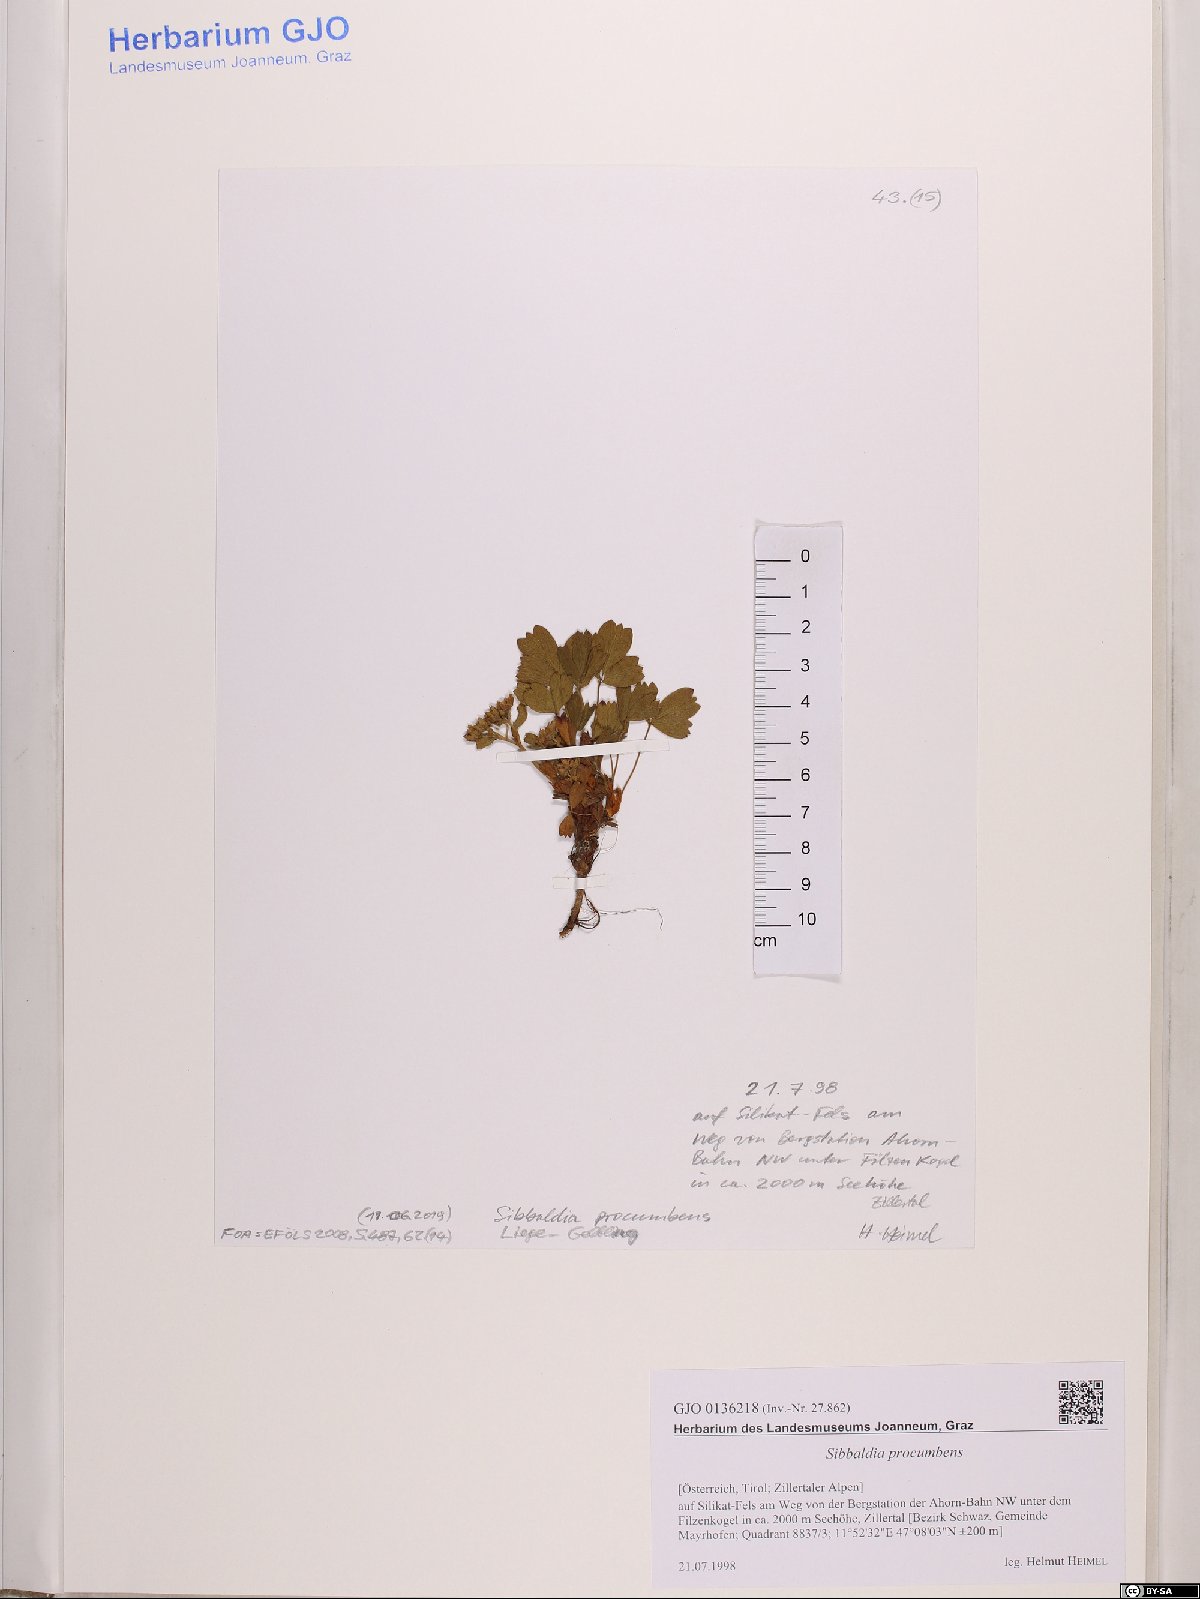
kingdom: Plantae
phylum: Tracheophyta
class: Magnoliopsida
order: Rosales
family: Rosaceae
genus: Sibbaldia
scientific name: Sibbaldia procumbens
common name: Creeping sibbaldia
